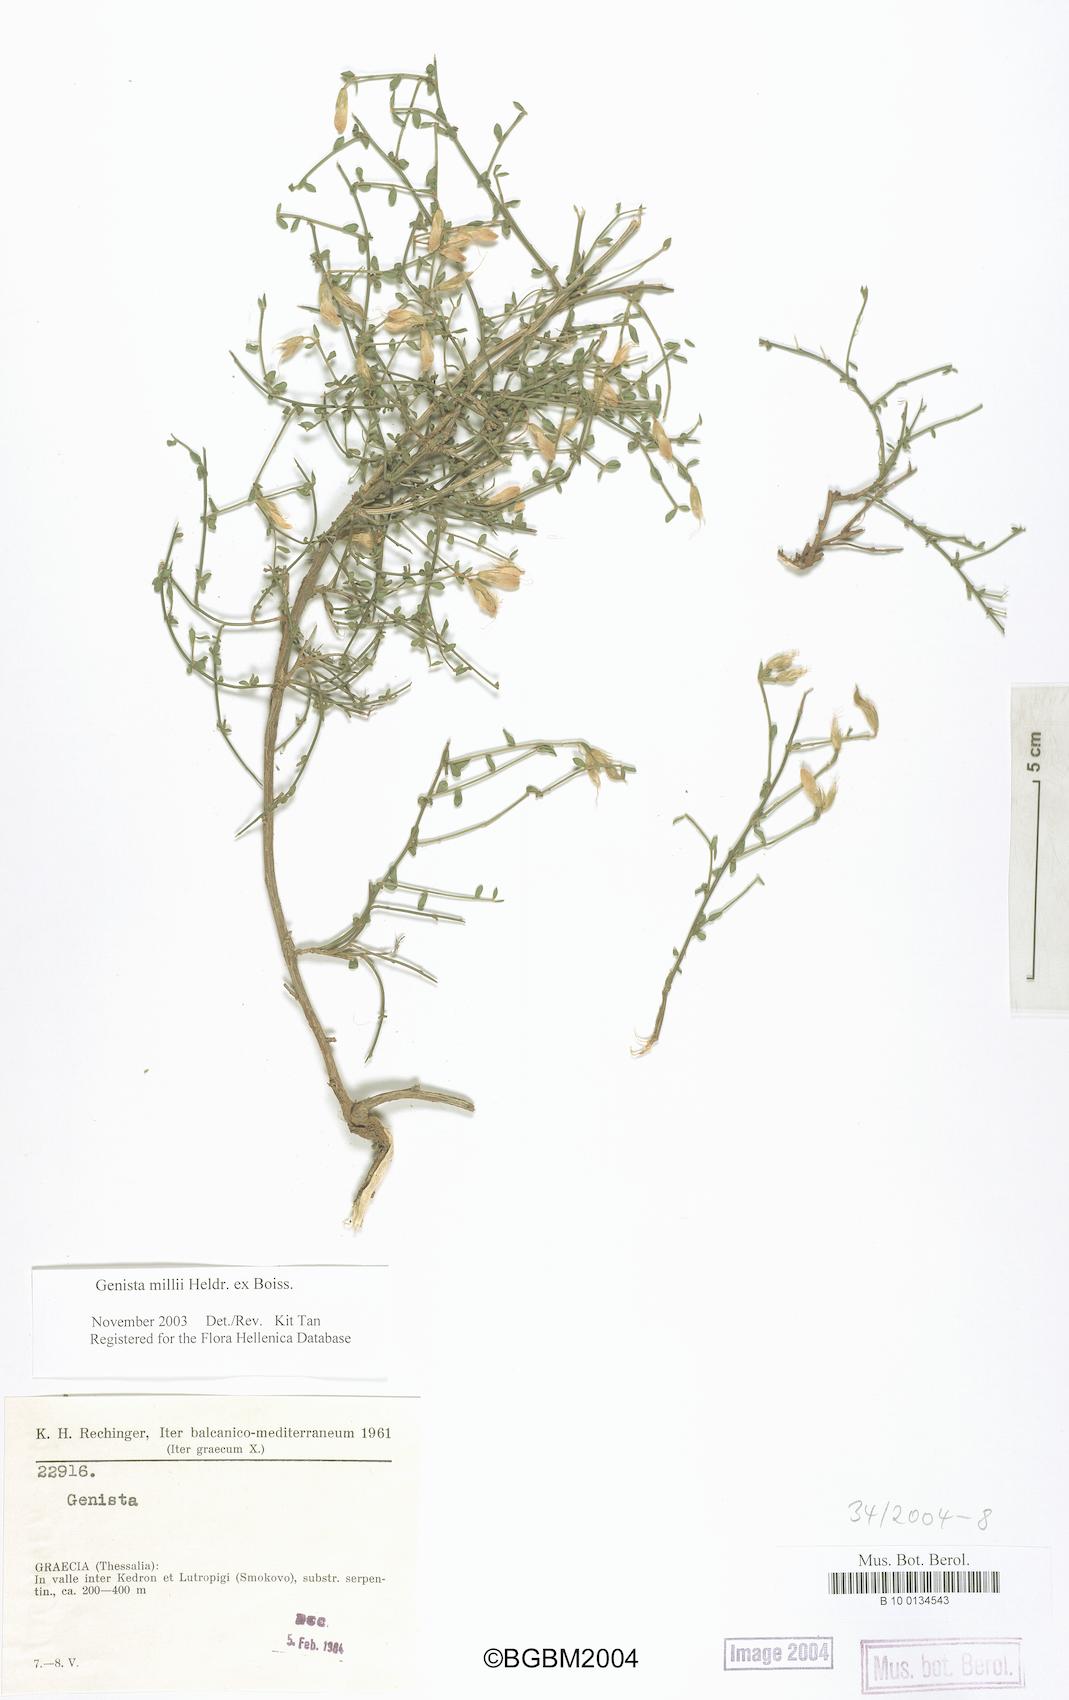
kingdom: Plantae
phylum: Tracheophyta
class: Magnoliopsida
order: Fabales
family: Fabaceae
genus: Genista
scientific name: Genista millii
